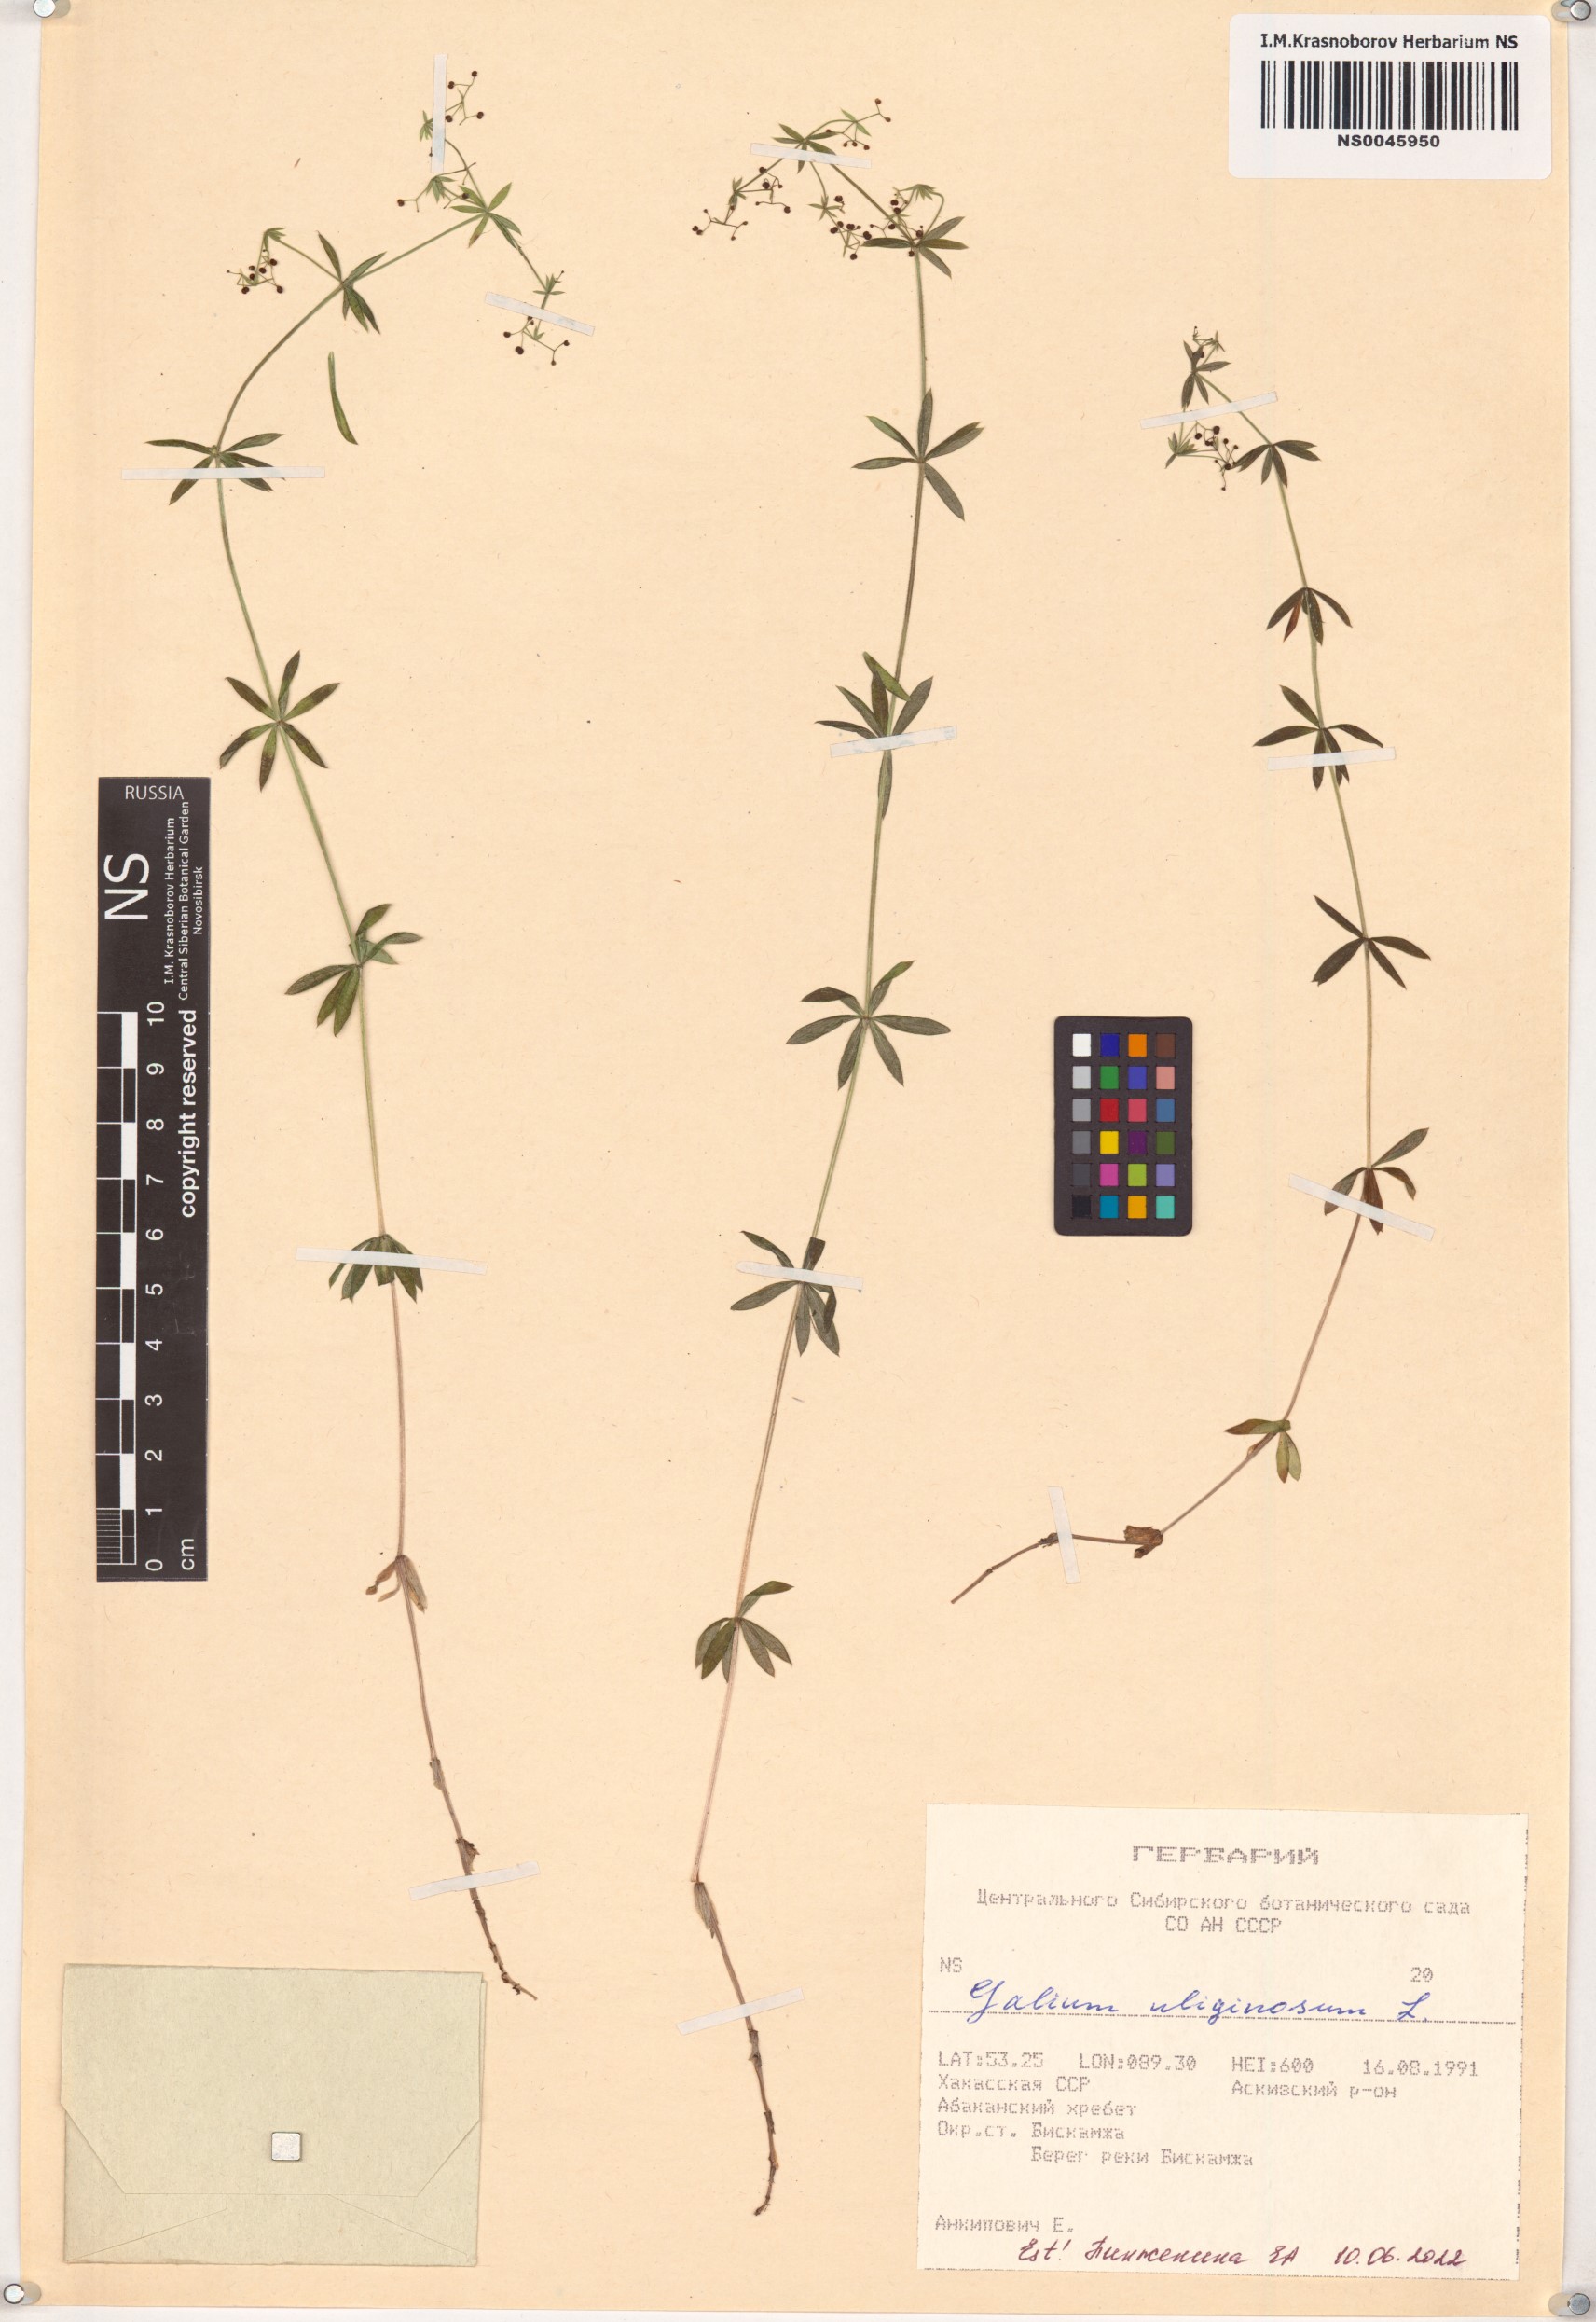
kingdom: Plantae
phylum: Tracheophyta
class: Magnoliopsida
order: Gentianales
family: Rubiaceae
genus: Galium
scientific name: Galium uliginosum
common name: Fen bedstraw
